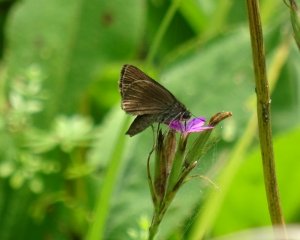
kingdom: Animalia
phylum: Arthropoda
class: Insecta
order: Lepidoptera
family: Hesperiidae
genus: Euphyes
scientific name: Euphyes vestris
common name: Dun Skipper
